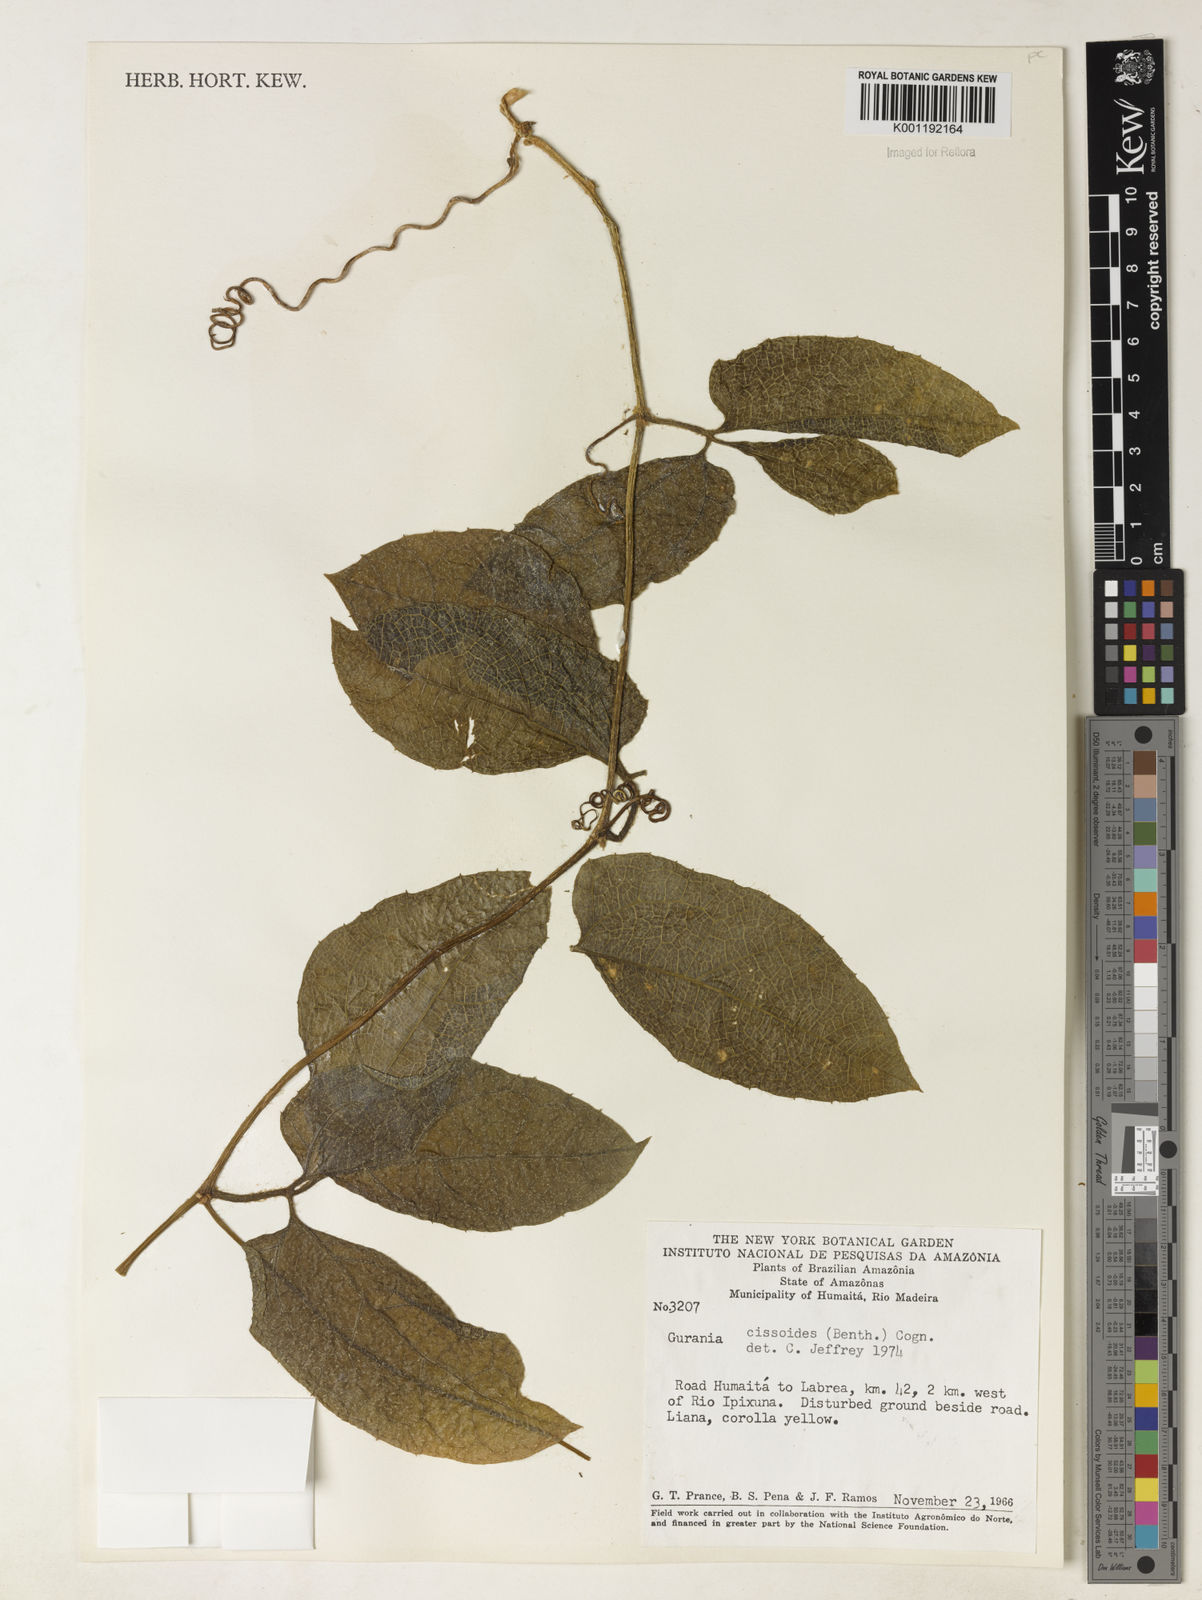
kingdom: Plantae
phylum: Tracheophyta
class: Magnoliopsida
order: Cucurbitales
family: Cucurbitaceae
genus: Gurania
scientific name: Gurania bignoniacea
